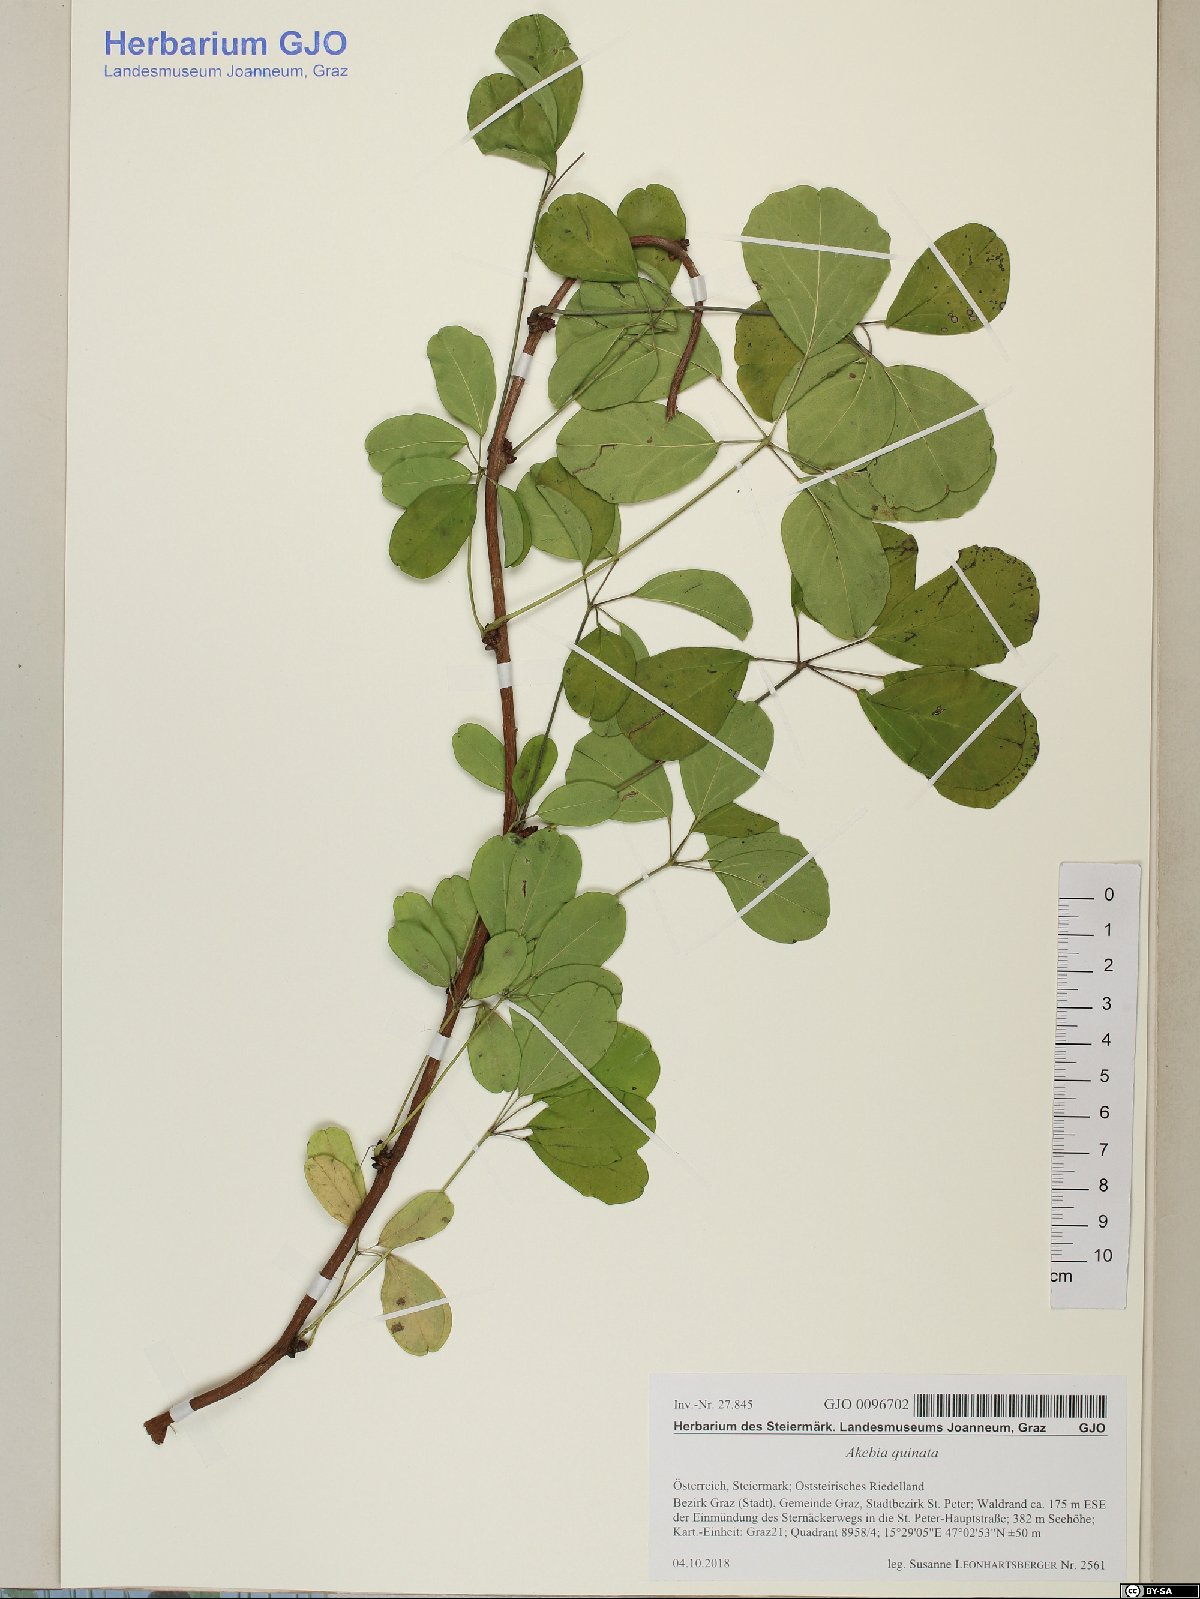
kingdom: Plantae
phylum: Tracheophyta
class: Magnoliopsida
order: Ranunculales
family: Lardizabalaceae
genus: Akebia
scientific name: Akebia quinata
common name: Five-leaf akebia
